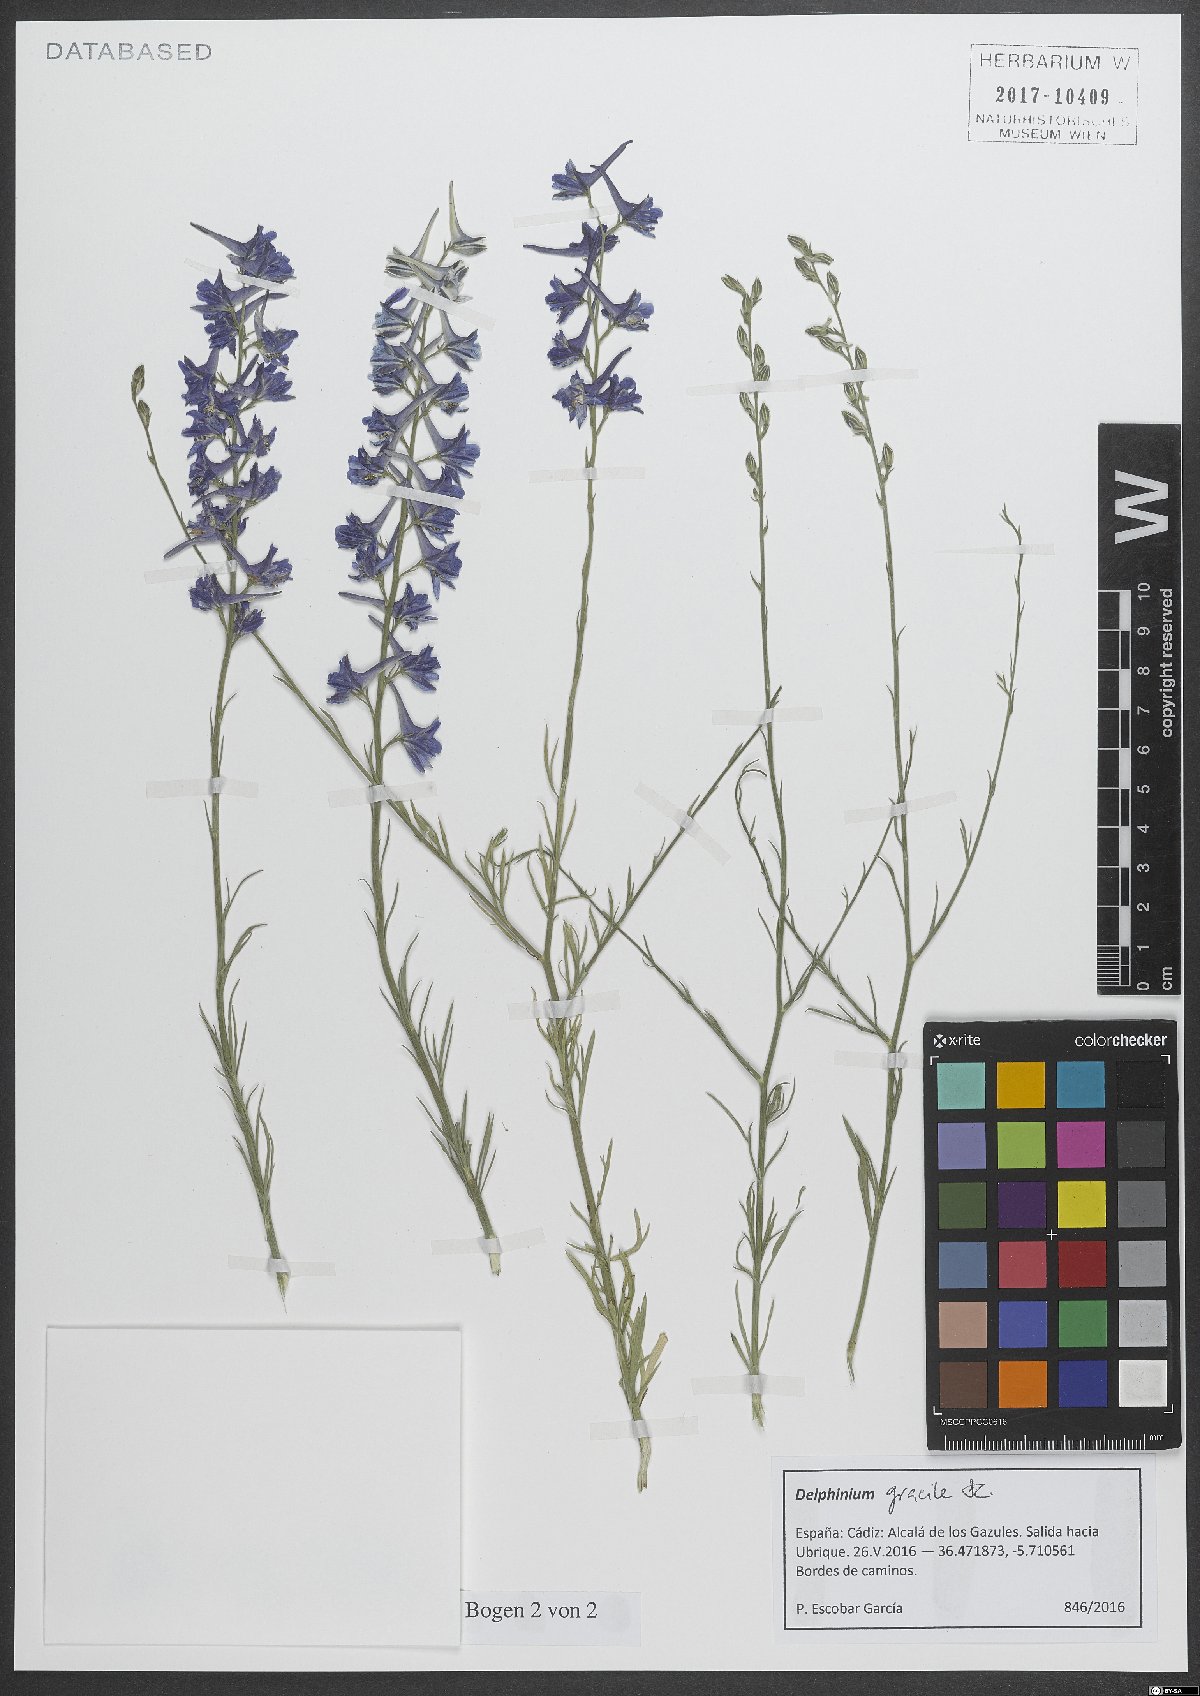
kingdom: Plantae
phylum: Tracheophyta
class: Magnoliopsida
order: Ranunculales
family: Ranunculaceae
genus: Delphinium
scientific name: Delphinium gracile
